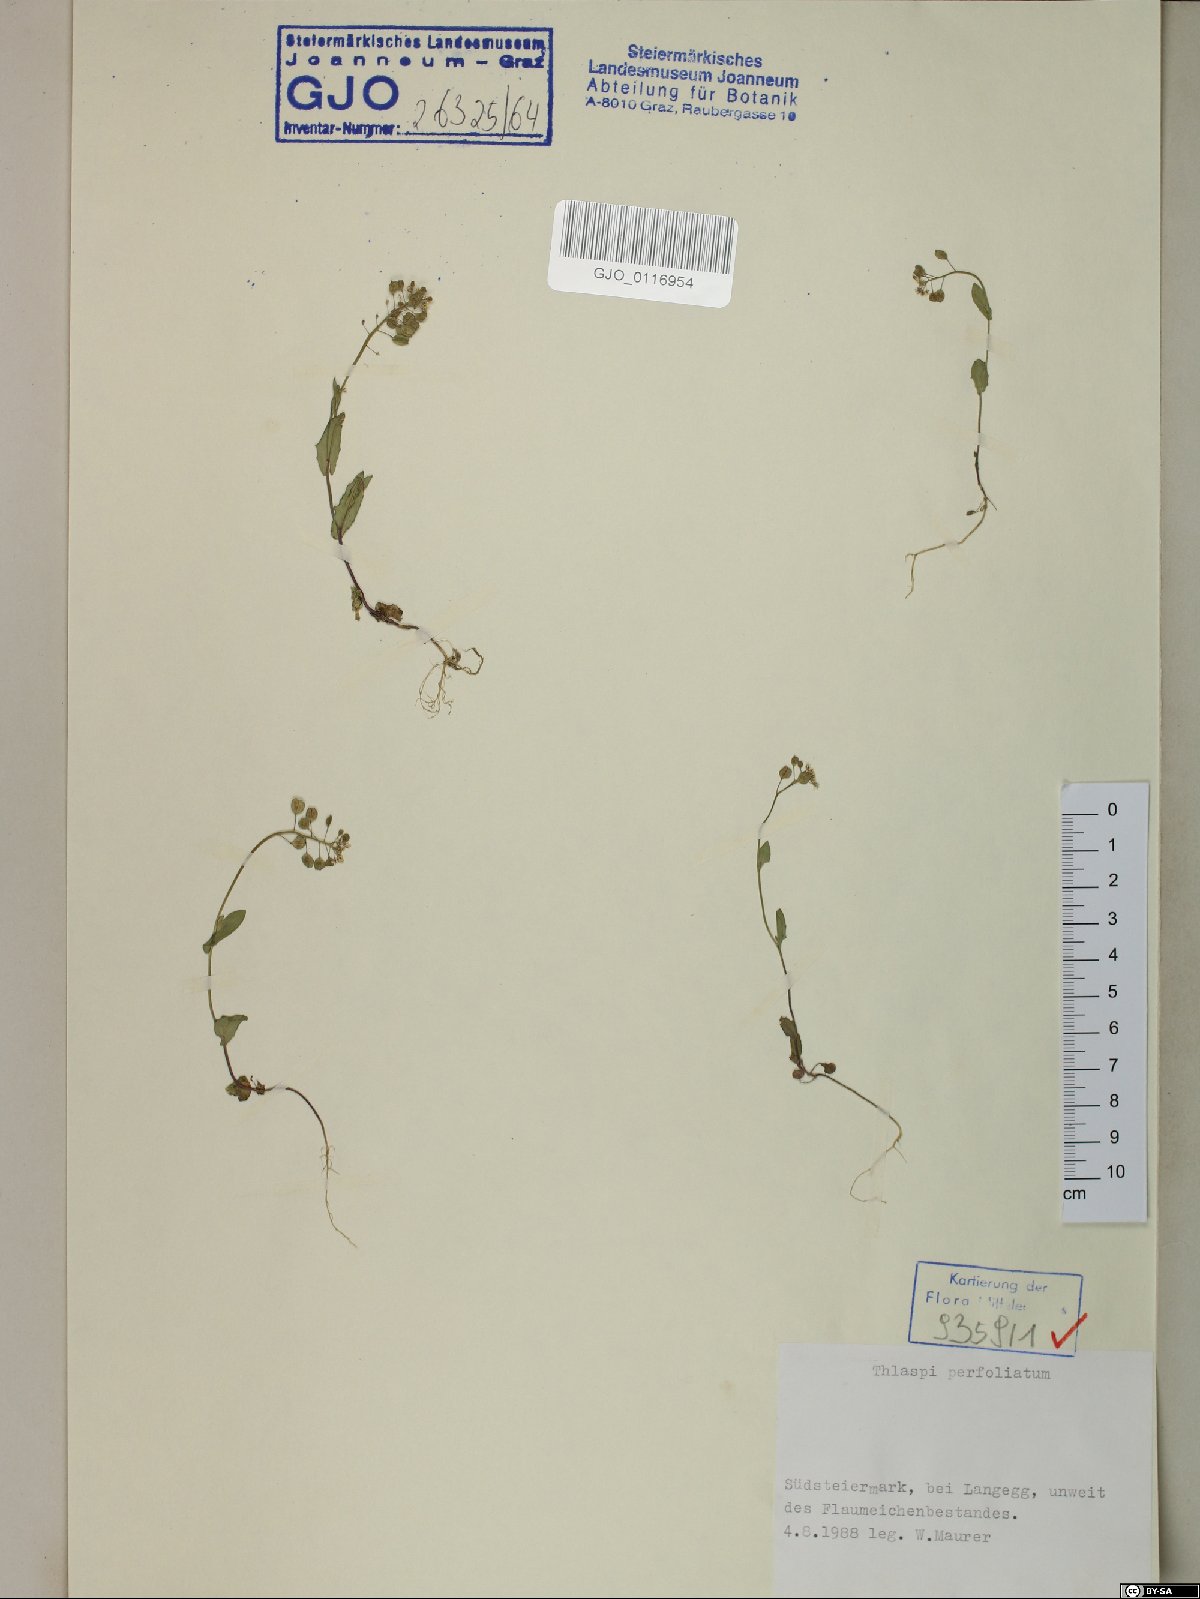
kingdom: Plantae
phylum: Tracheophyta
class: Magnoliopsida
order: Brassicales
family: Brassicaceae
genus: Noccaea
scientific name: Noccaea perfoliata
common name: Perfoliate pennycress
